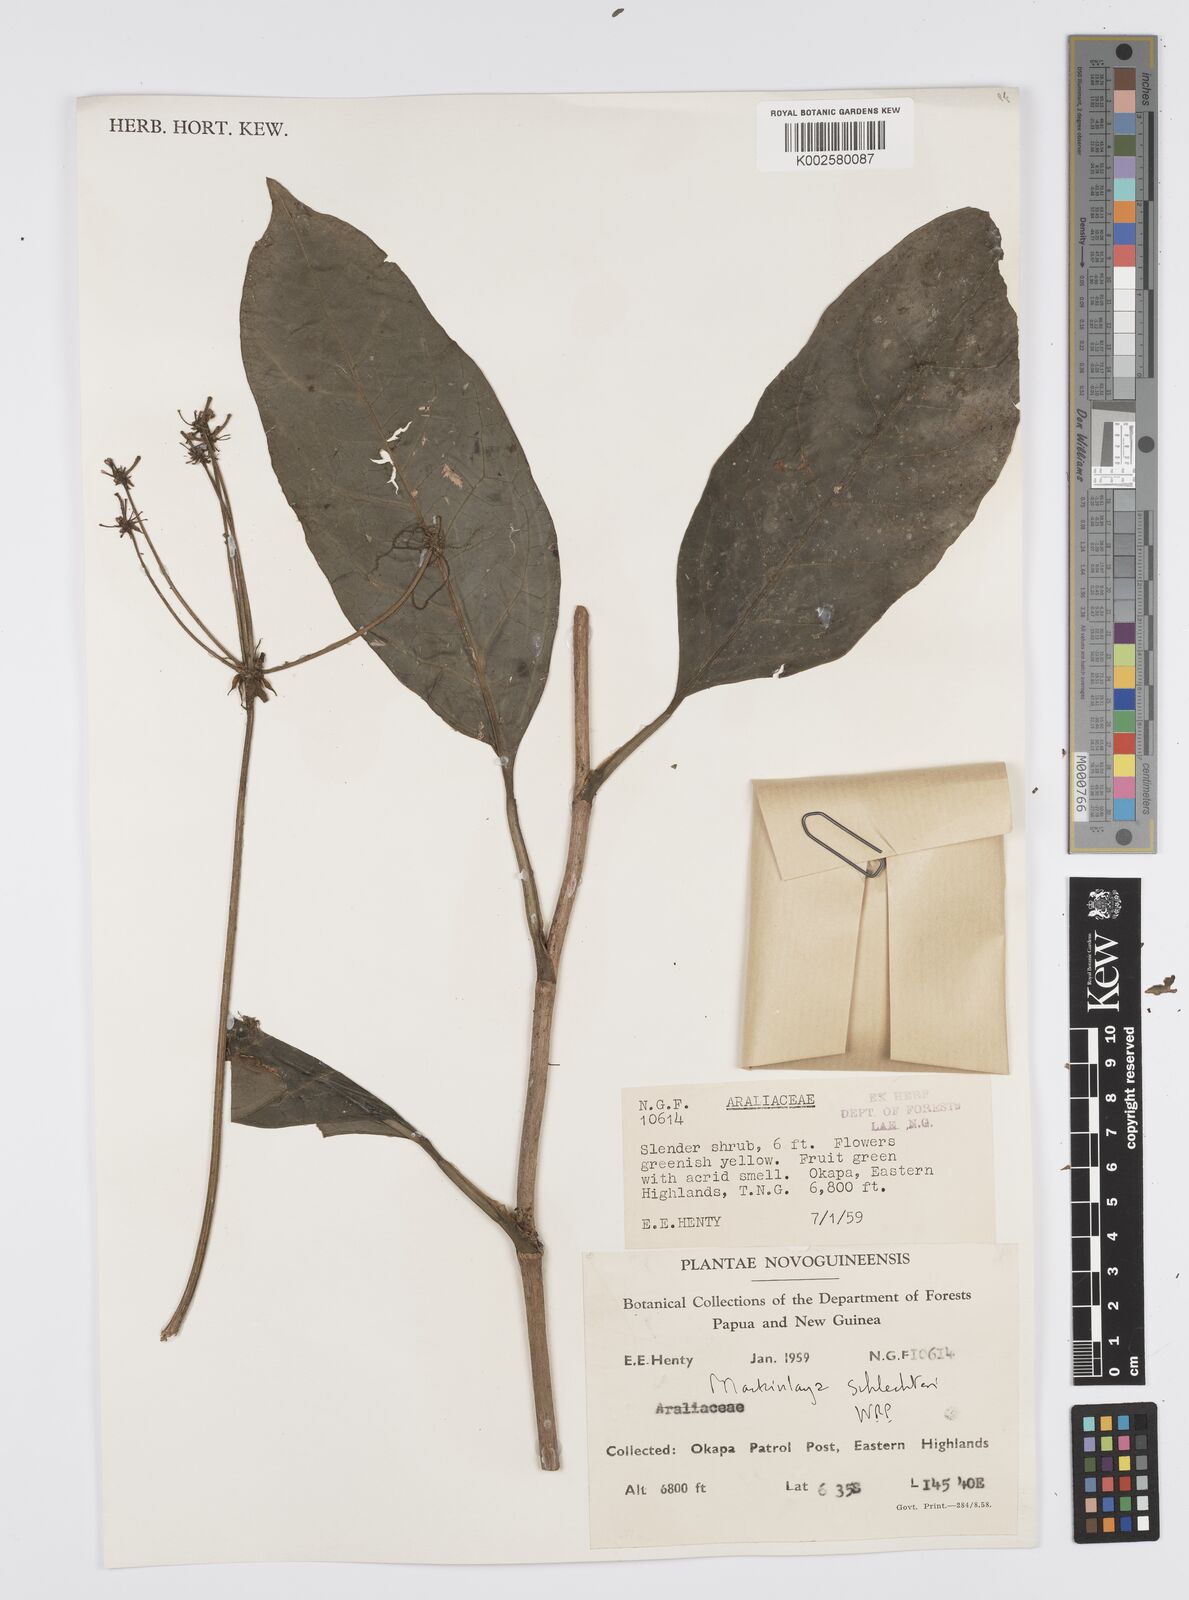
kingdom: Plantae
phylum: Tracheophyta
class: Magnoliopsida
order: Apiales
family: Apiaceae
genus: Mackinlaya
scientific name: Mackinlaya schlechteri
